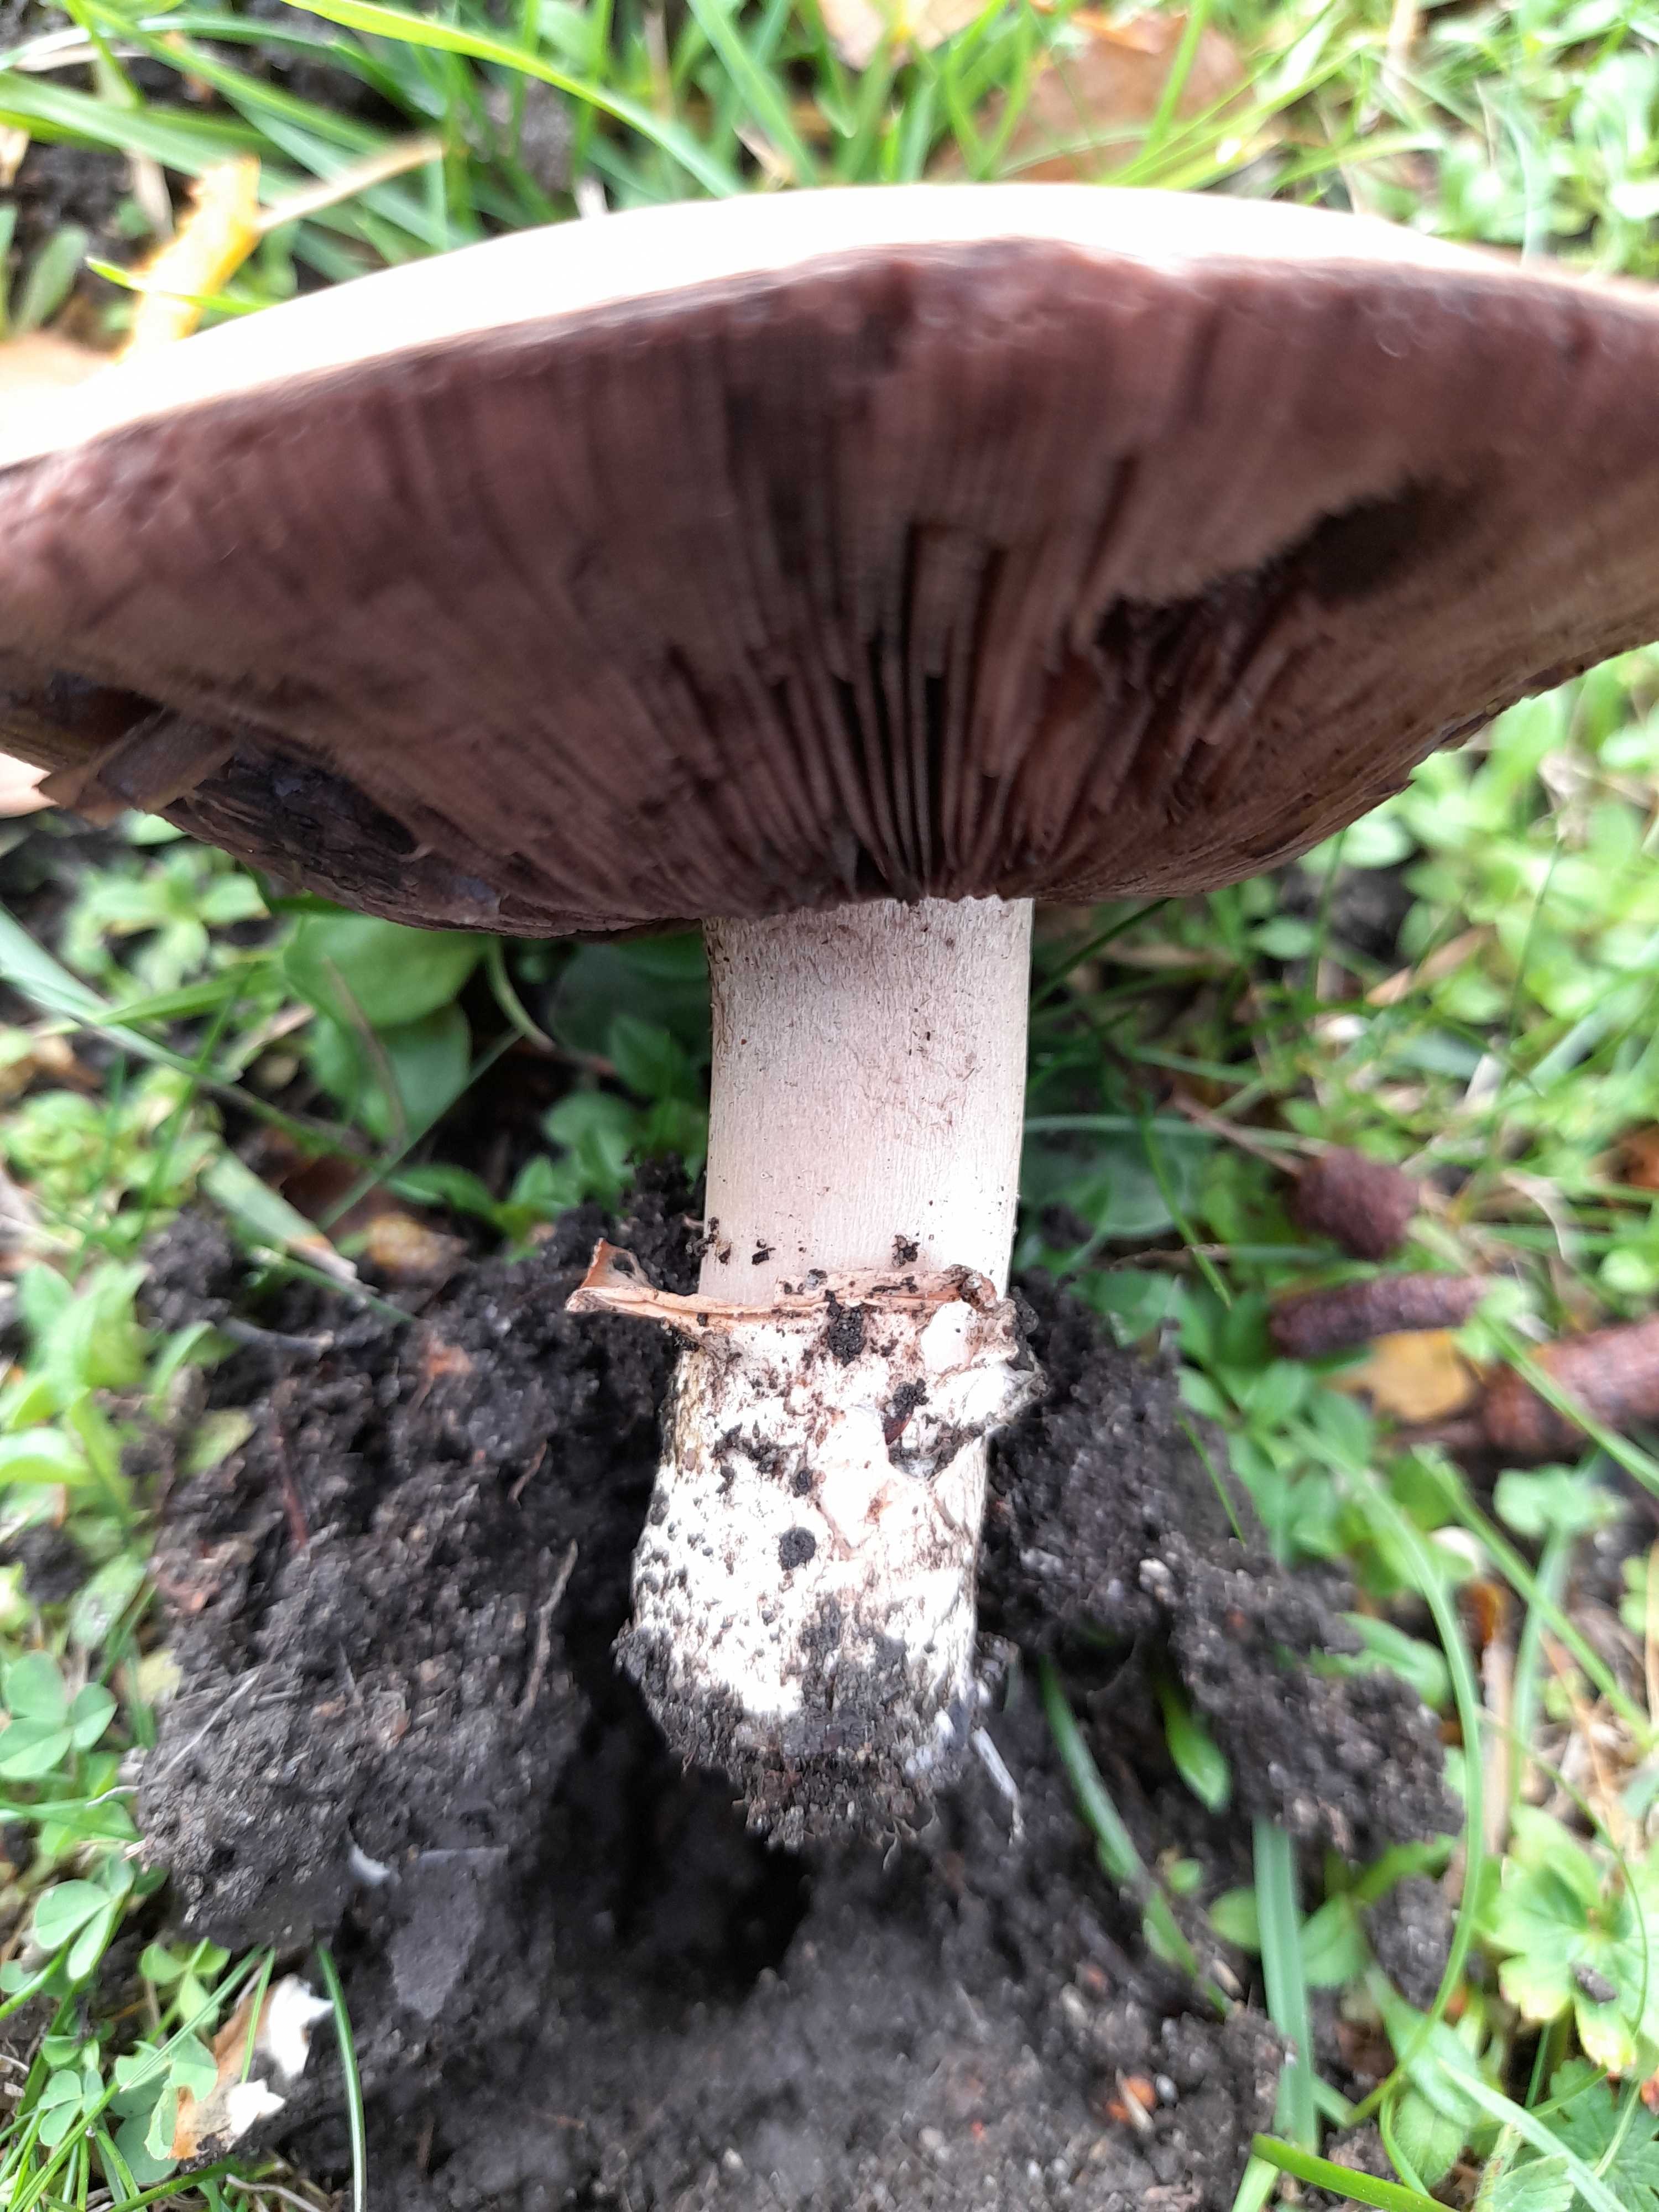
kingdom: Fungi
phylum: Basidiomycota
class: Agaricomycetes
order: Agaricales
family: Agaricaceae
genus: Agaricus
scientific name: Agaricus bitorquis
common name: vej-champignon
